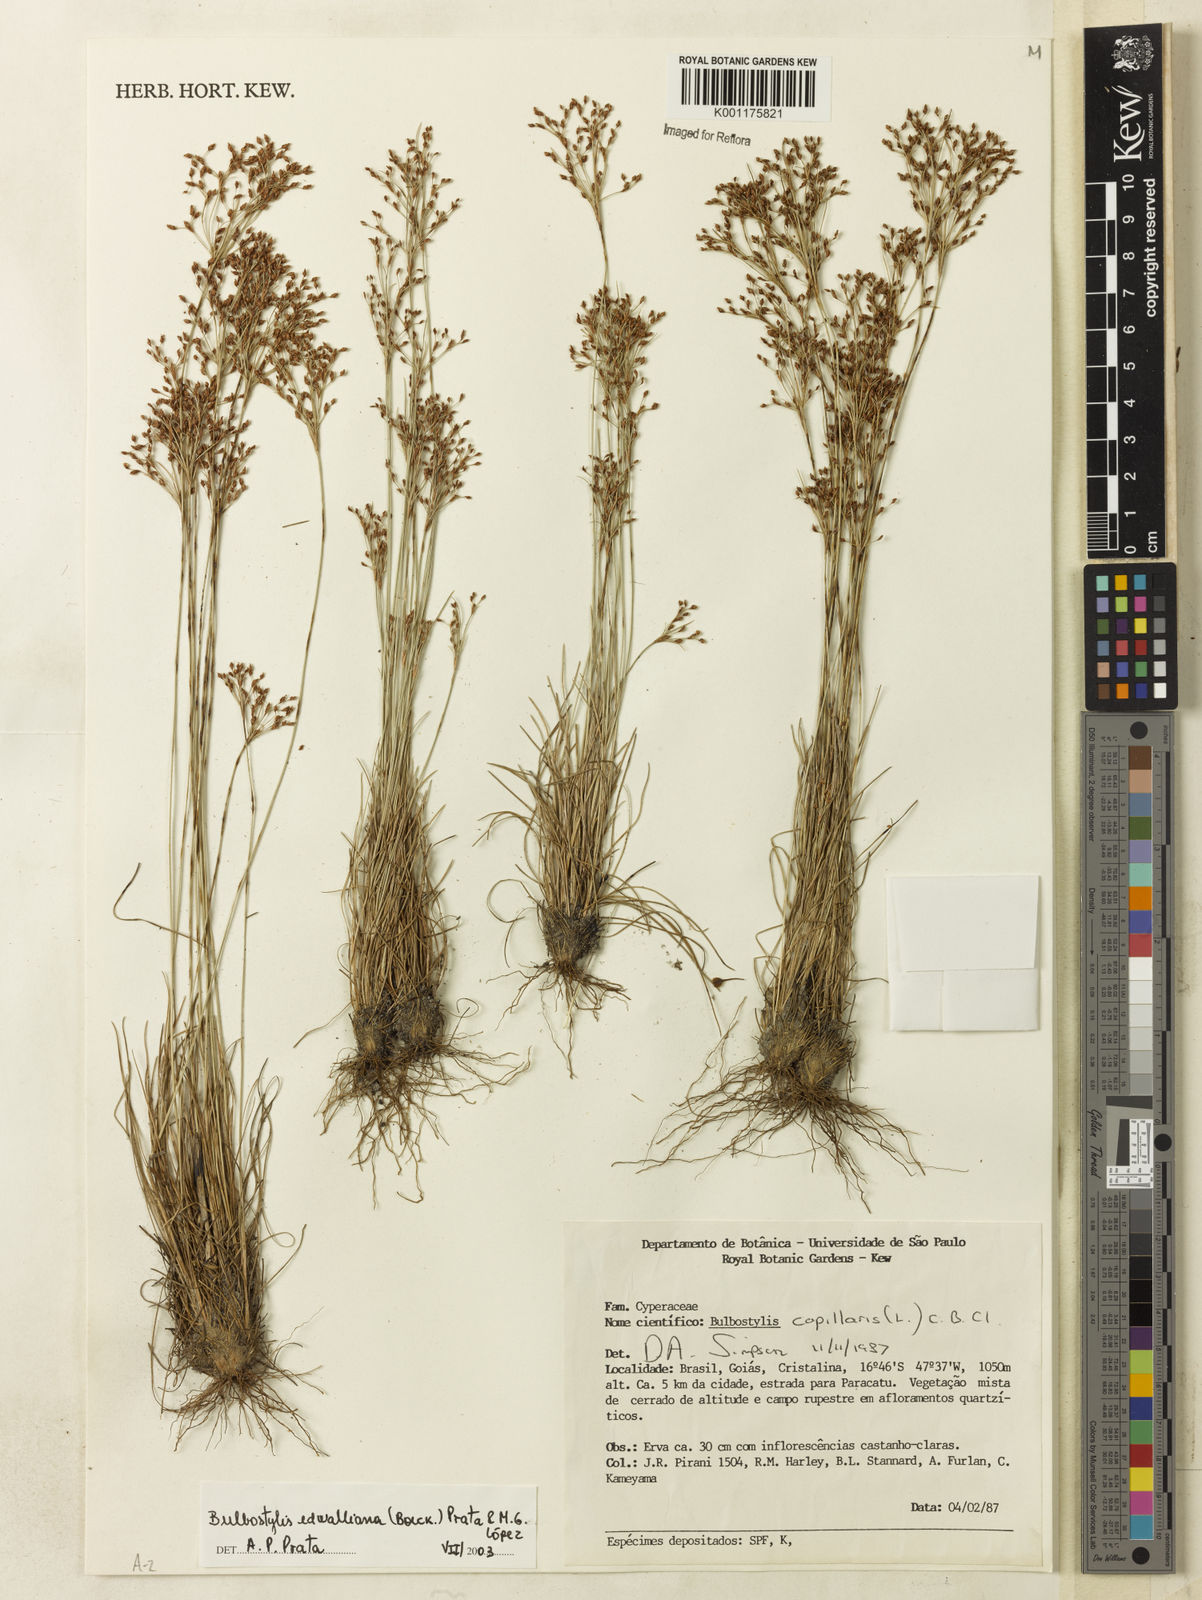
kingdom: Plantae
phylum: Tracheophyta
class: Liliopsida
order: Poales
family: Cyperaceae
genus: Bulbostylis
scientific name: Bulbostylis edwalliana
